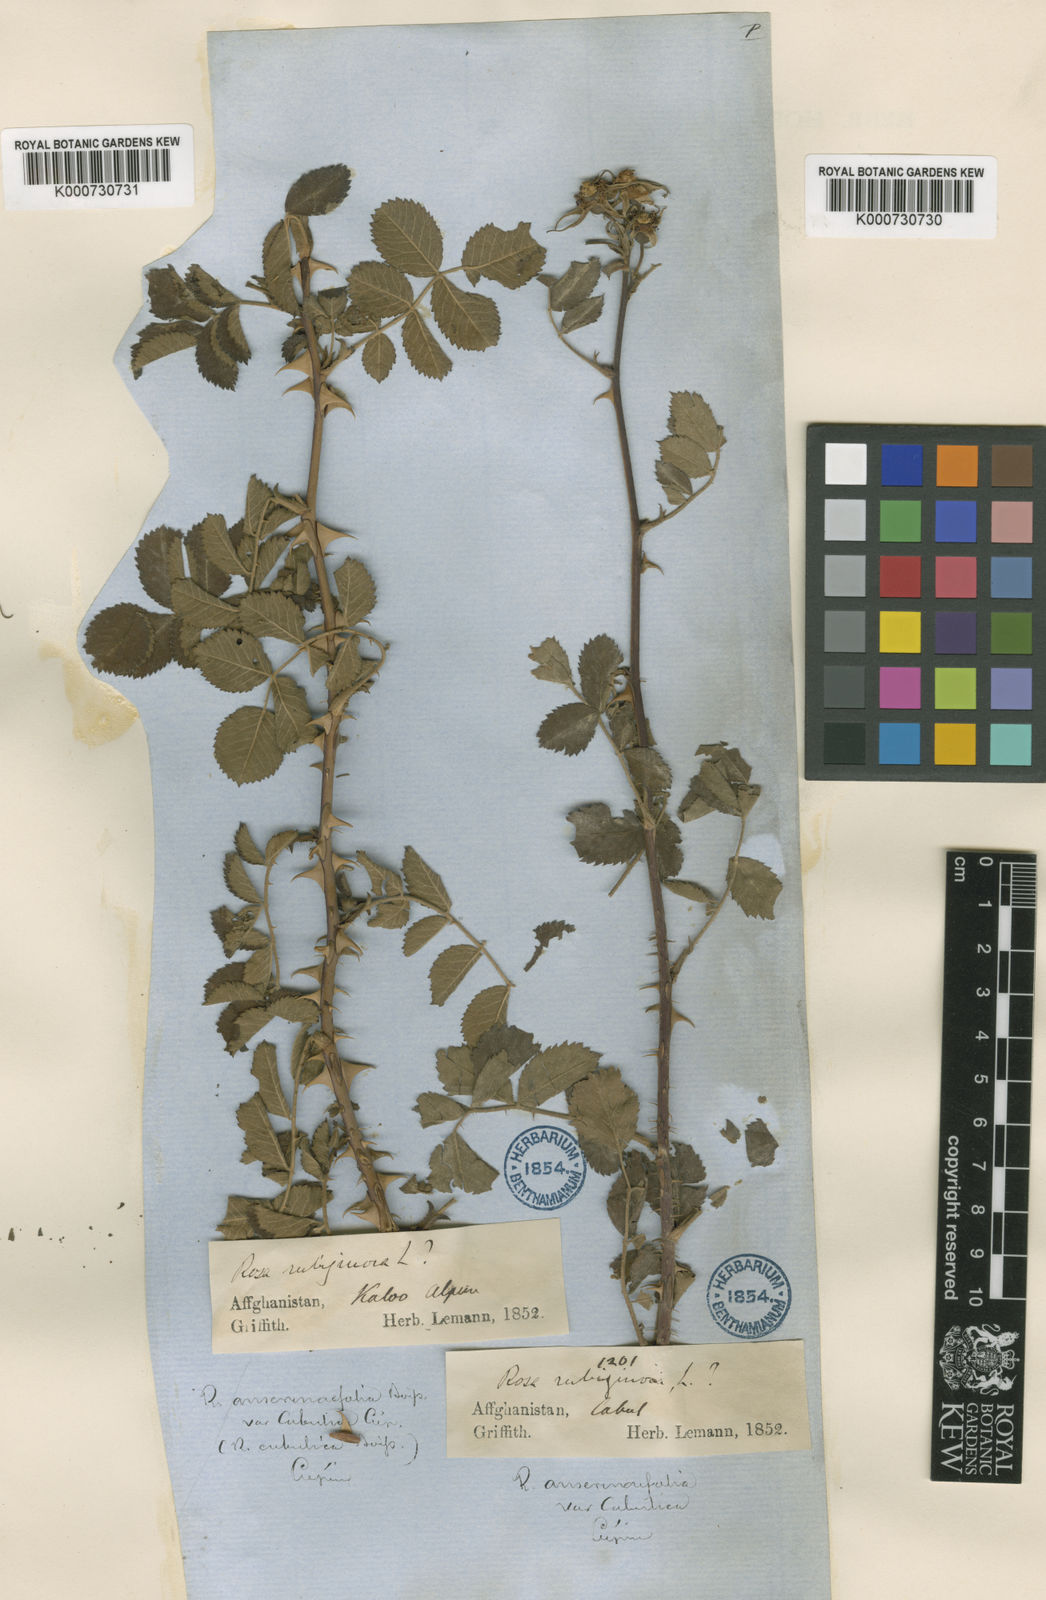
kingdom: Plantae
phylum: Tracheophyta
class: Magnoliopsida
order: Rosales
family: Rosaceae
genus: Rosa
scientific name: Rosa beggeriana
